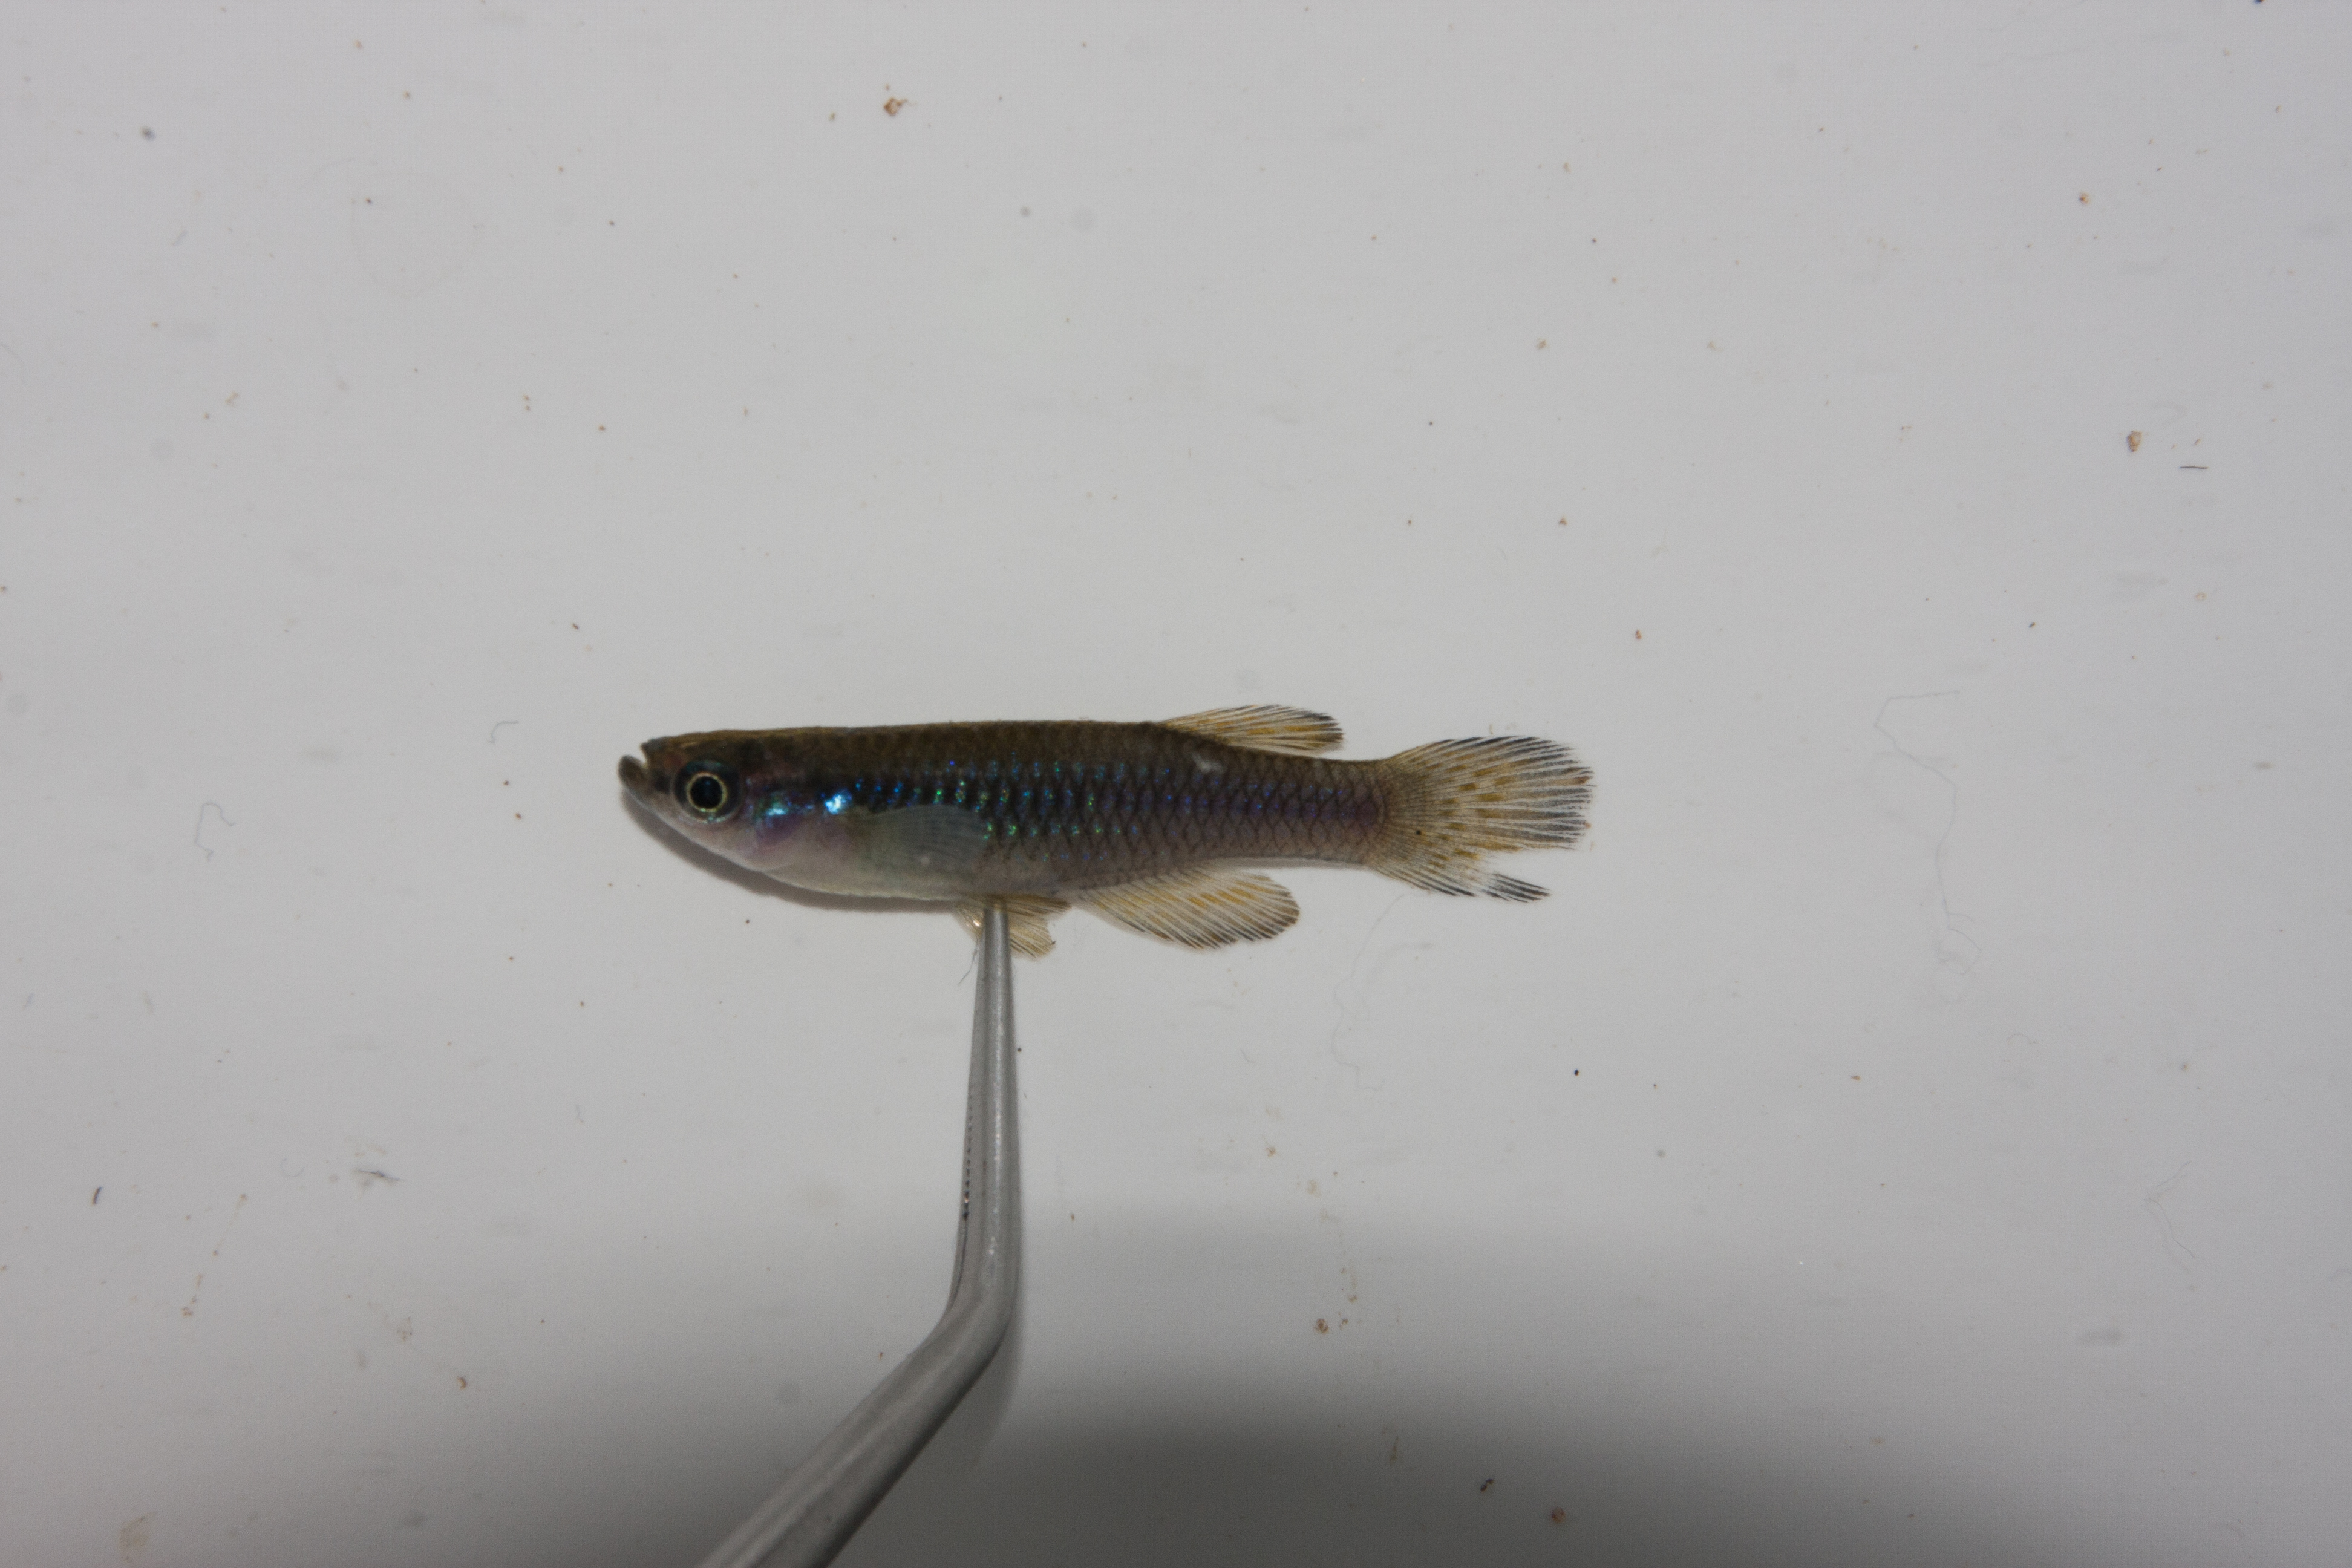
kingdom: Animalia
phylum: Chordata
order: Cyprinodontiformes
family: Poeciliidae
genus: Lacustricola
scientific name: Lacustricola myaposae
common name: Natal lampeye
